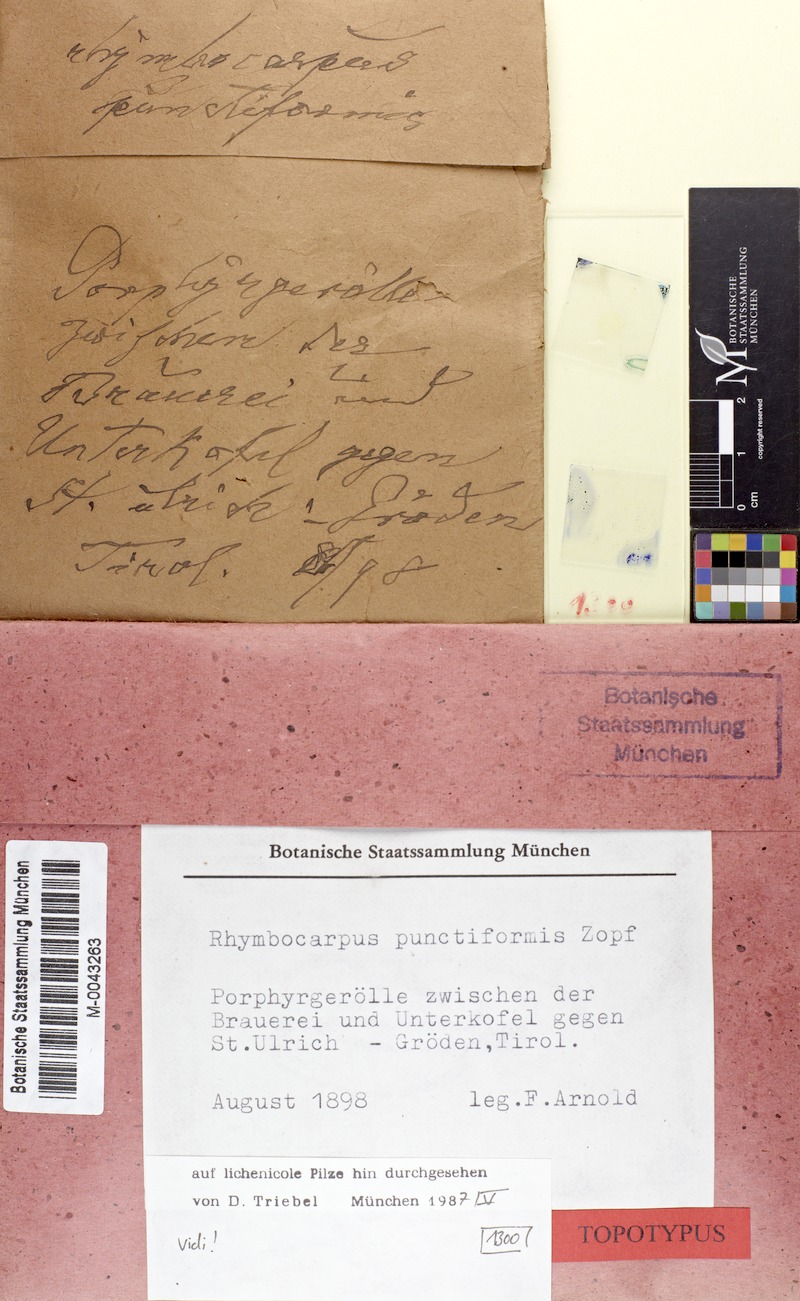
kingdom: Fungi
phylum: Ascomycota
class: Lecanoromycetes
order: Rhizocarpales
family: Rhizocarpaceae
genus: Rhizocarpon
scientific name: Rhizocarpon geographicum
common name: Yellow map lichen
